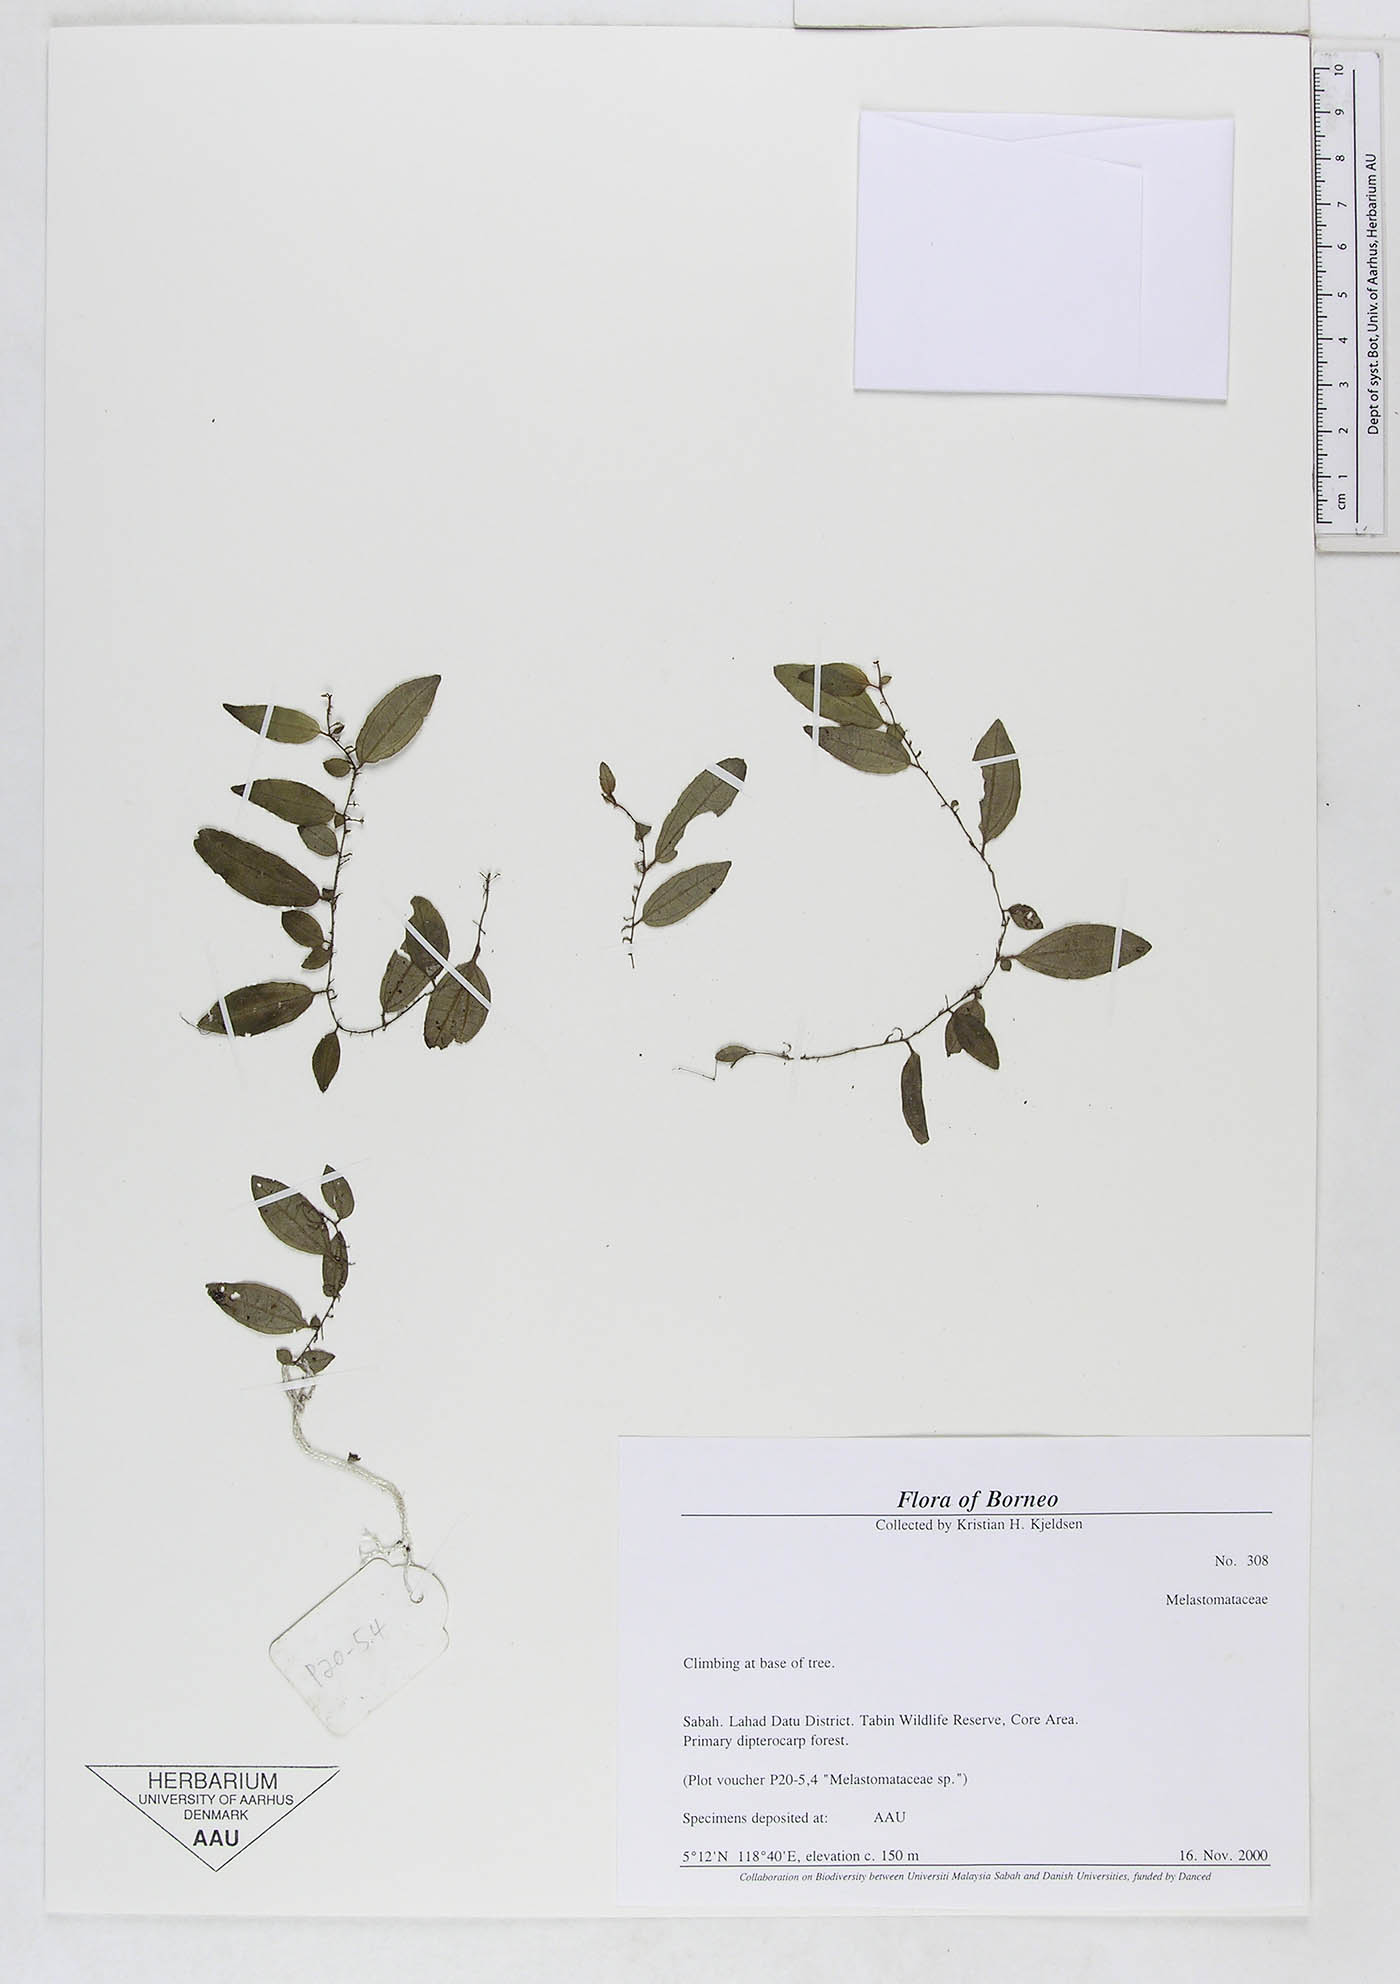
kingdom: Plantae
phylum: Tracheophyta
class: Magnoliopsida
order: Myrtales
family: Melastomataceae
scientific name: Melastomataceae
